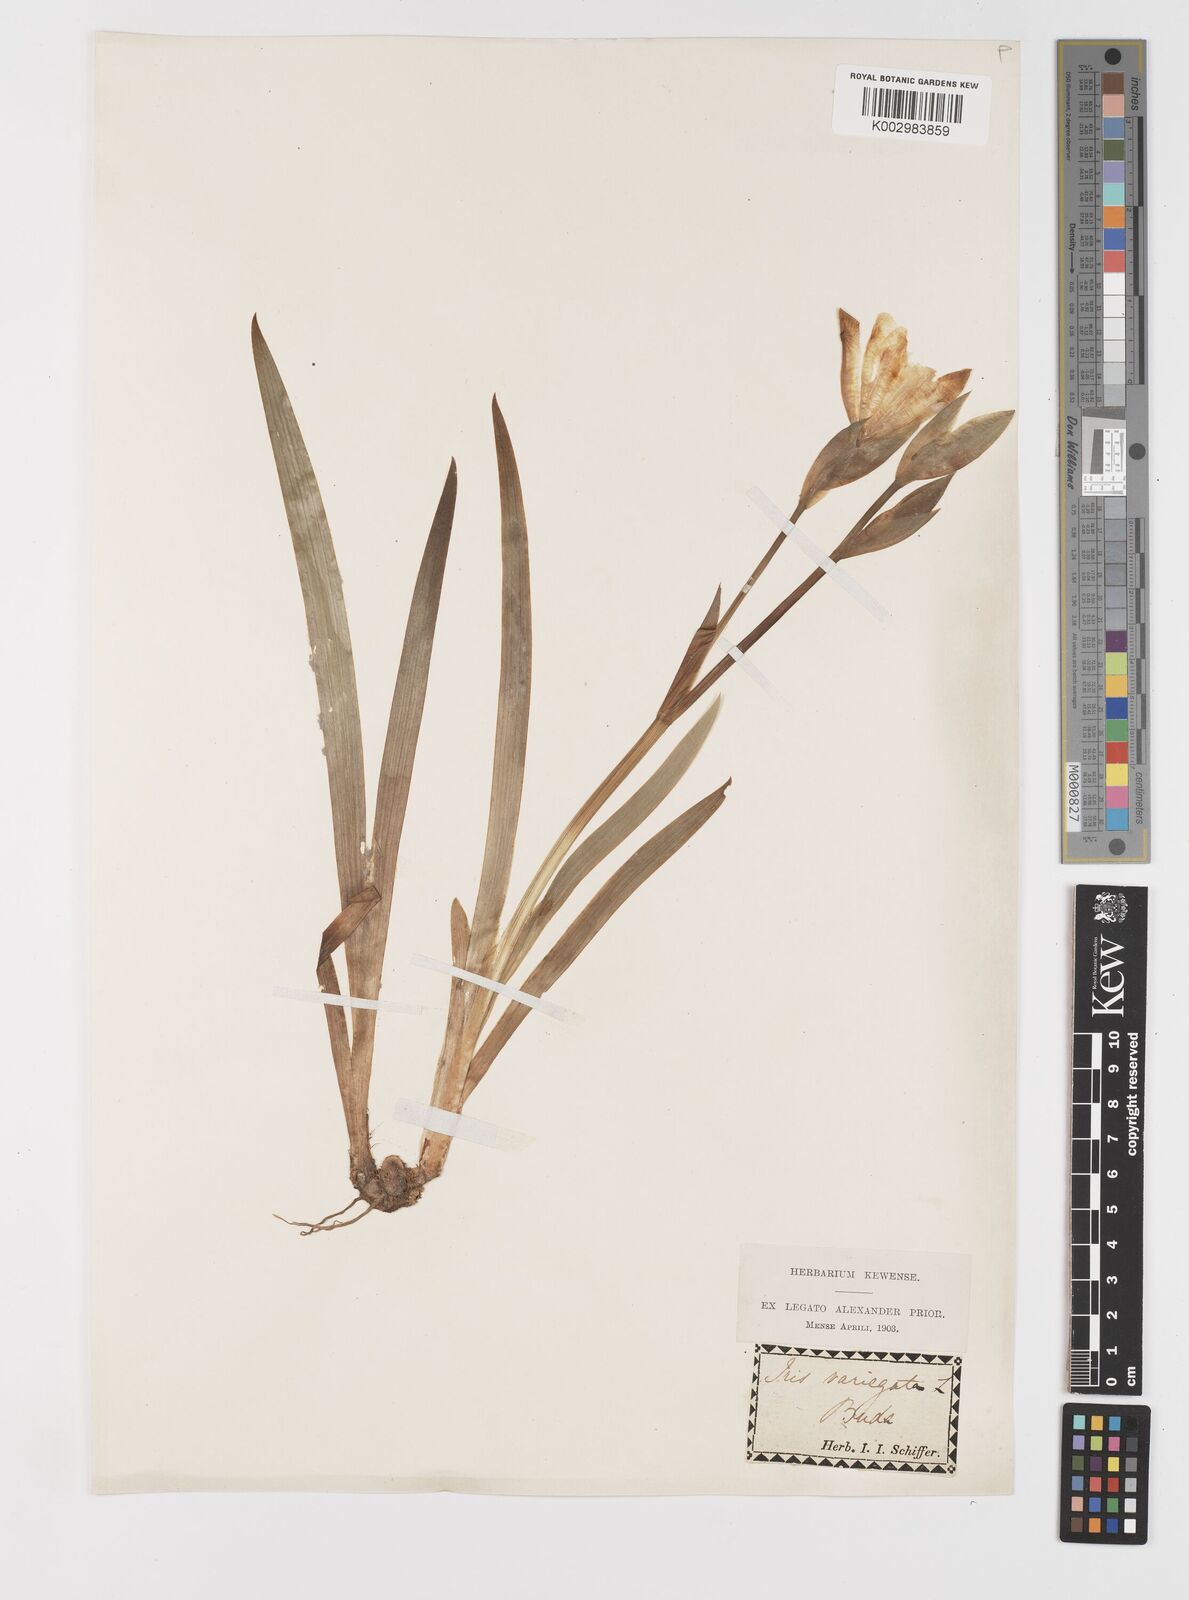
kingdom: Plantae
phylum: Tracheophyta
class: Liliopsida
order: Asparagales
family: Iridaceae
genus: Iris
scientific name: Iris variegata
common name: Hungarian iris
